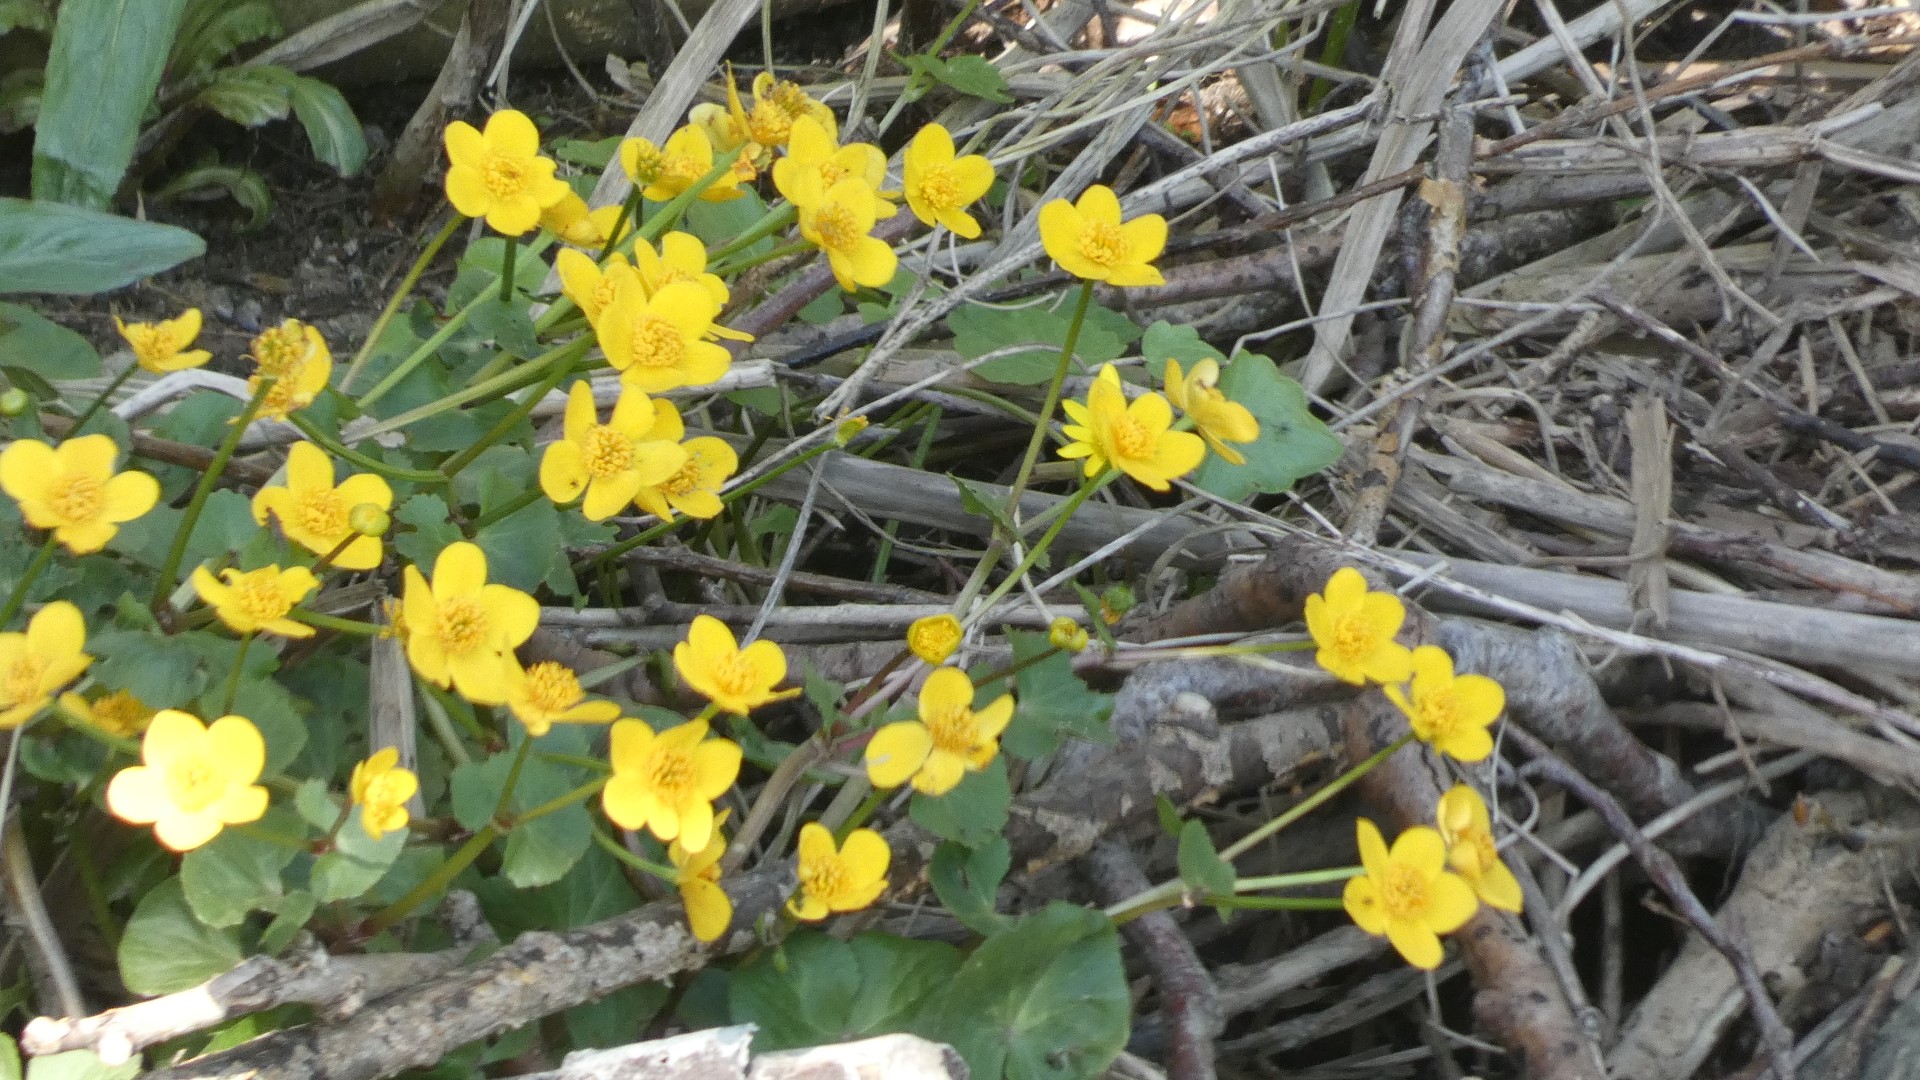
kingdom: Plantae
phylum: Tracheophyta
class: Magnoliopsida
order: Ranunculales
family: Ranunculaceae
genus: Caltha
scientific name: Caltha palustris
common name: Eng-kabbeleje
